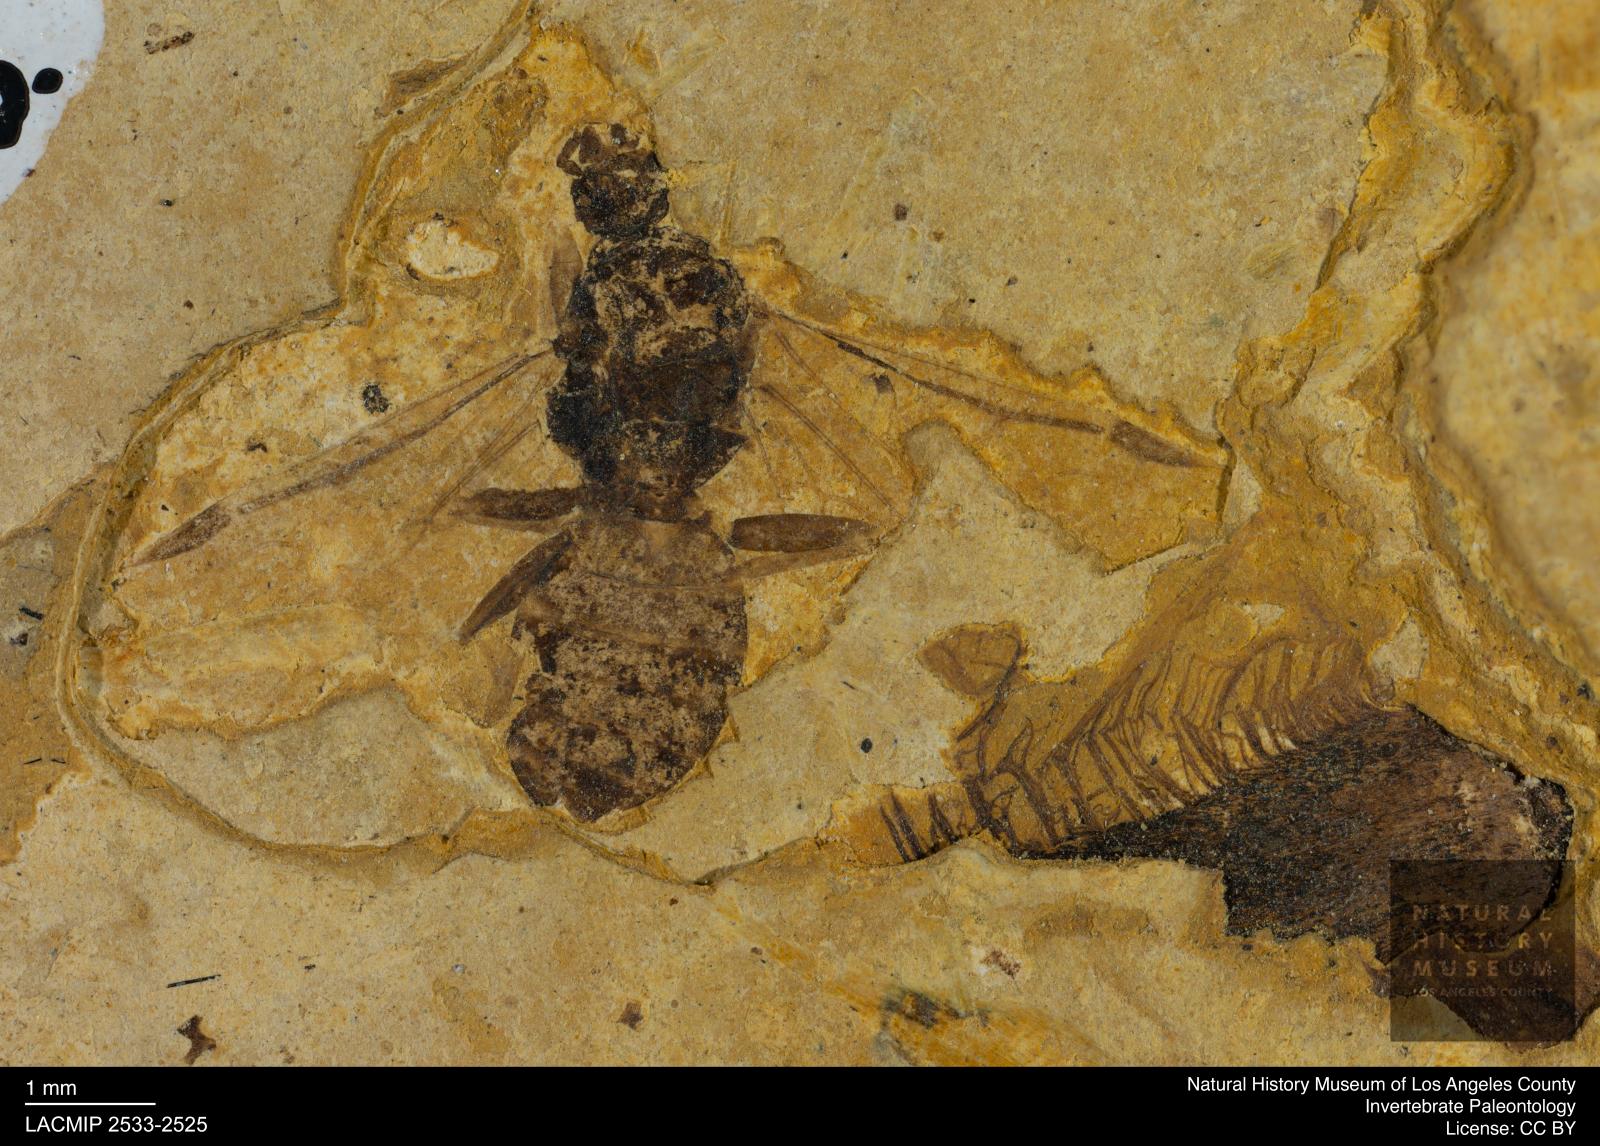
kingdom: Animalia
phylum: Arthropoda
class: Insecta
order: Hymenoptera
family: Formicidae
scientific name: Formicidae
